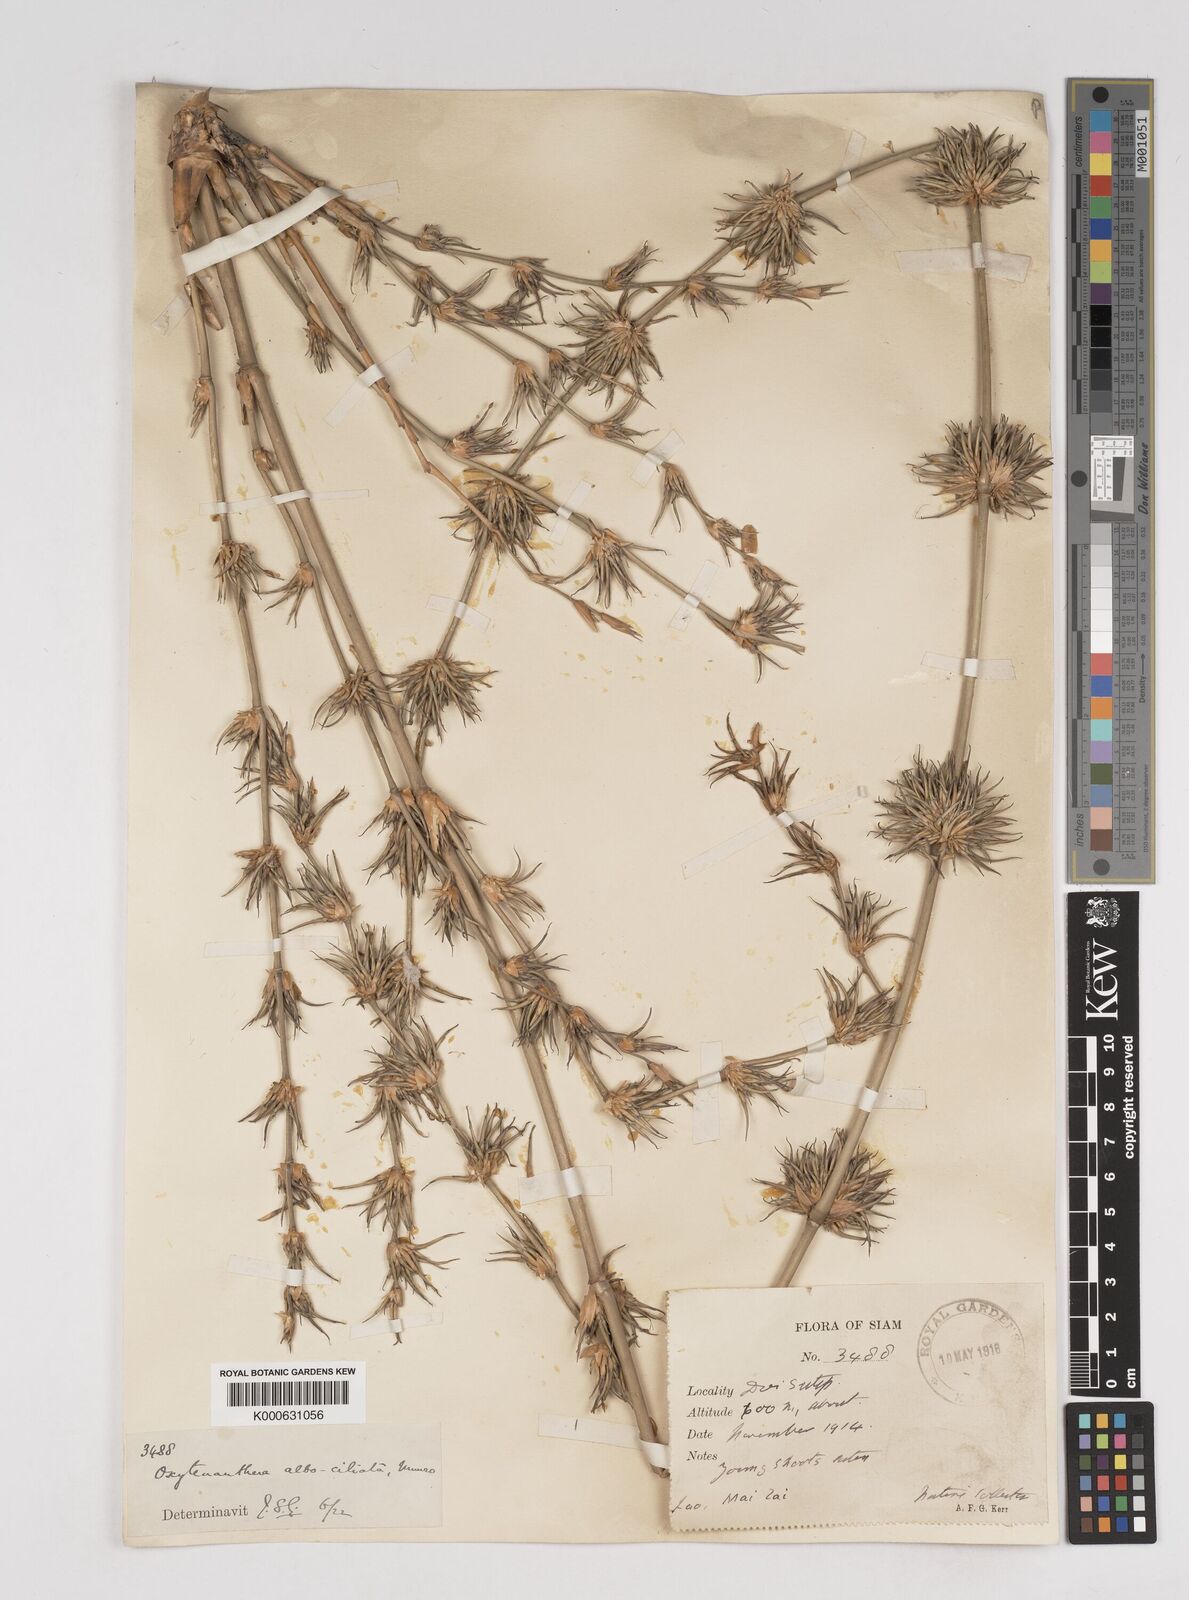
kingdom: Plantae
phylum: Tracheophyta
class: Liliopsida
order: Poales
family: Poaceae
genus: Gigantochloa
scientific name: Gigantochloa albociliata
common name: White-fringe gigantochloa
